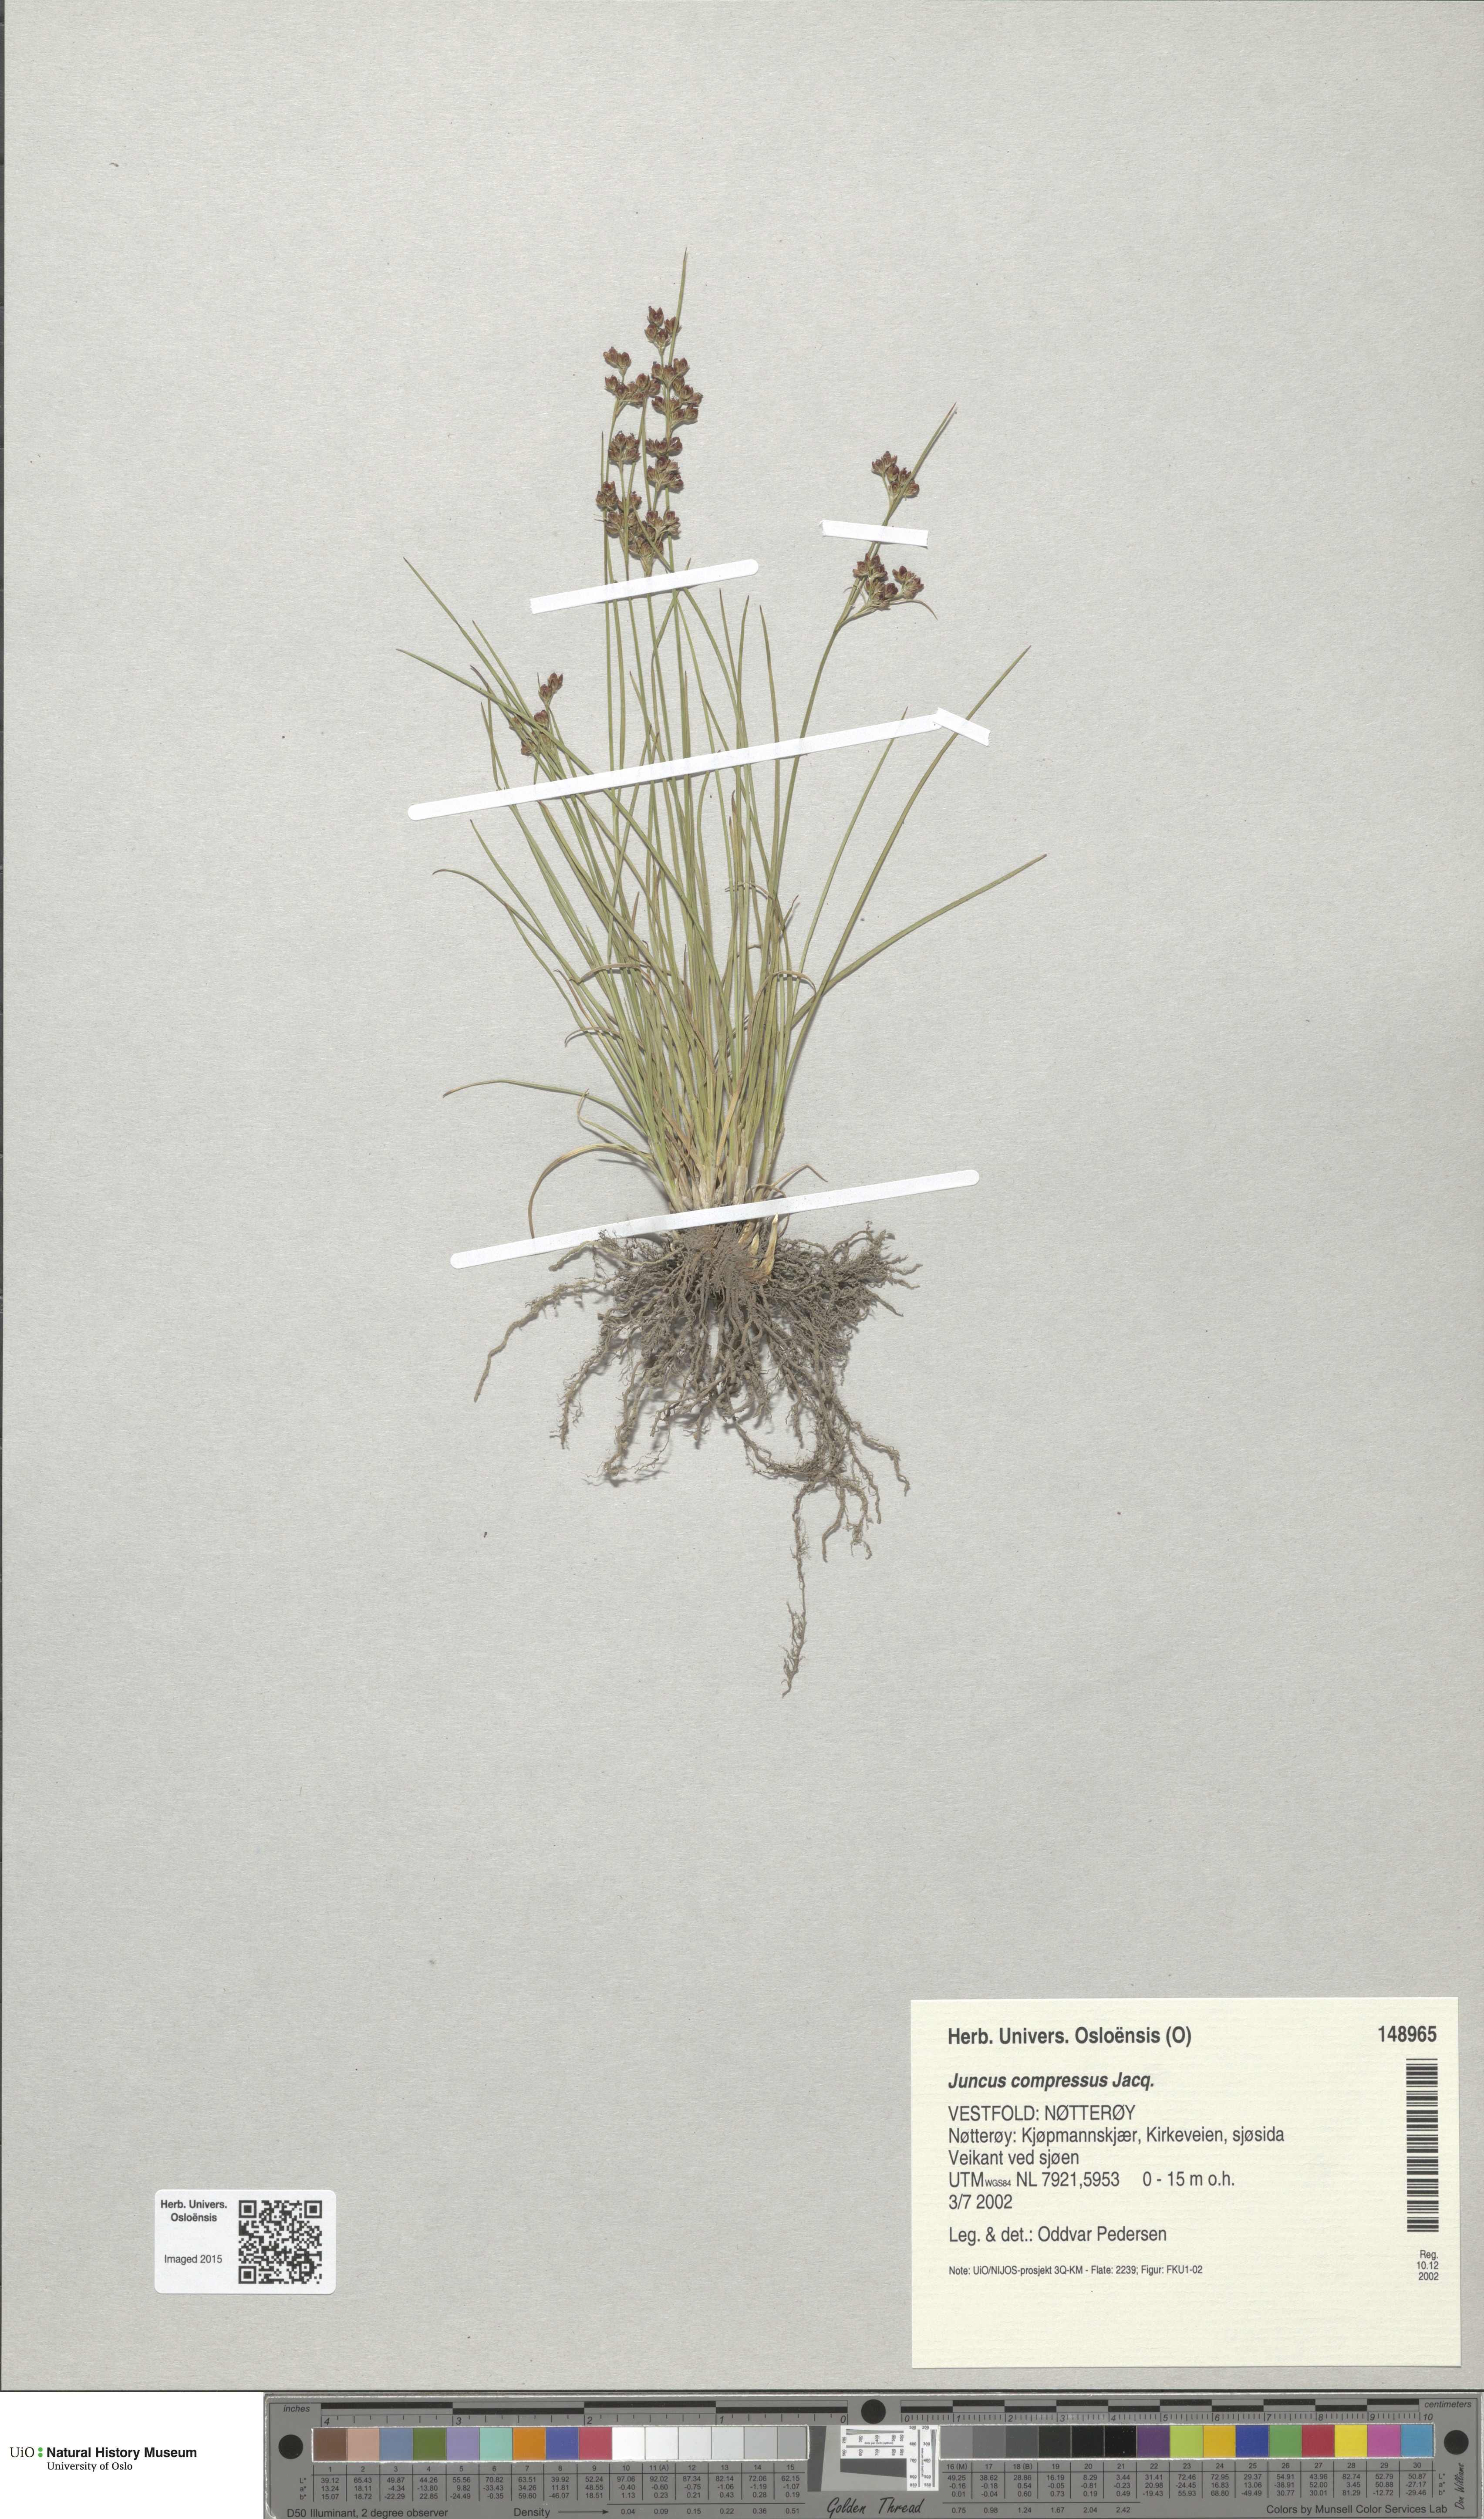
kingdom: Plantae
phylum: Tracheophyta
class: Liliopsida
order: Poales
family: Juncaceae
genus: Juncus
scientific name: Juncus compressus
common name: Round-fruited rush
